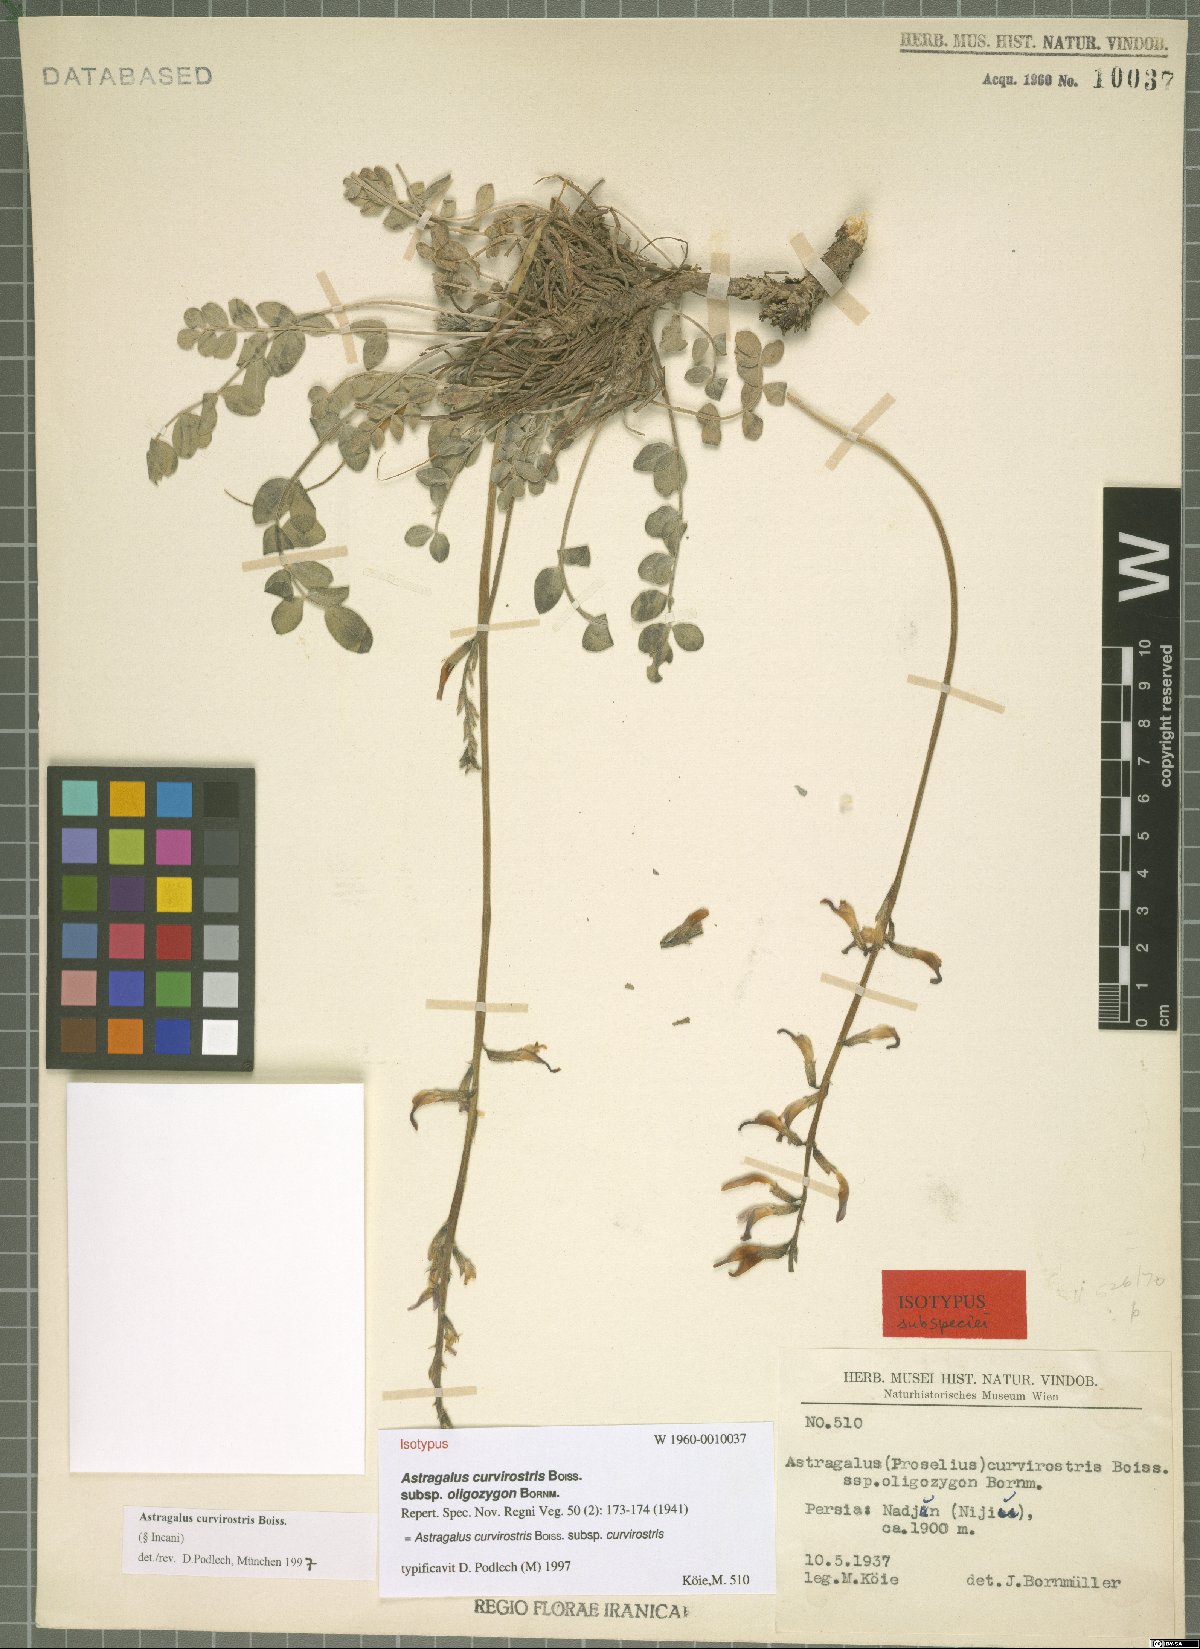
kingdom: Plantae
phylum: Tracheophyta
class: Magnoliopsida
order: Fabales
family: Fabaceae
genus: Astragalus
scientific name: Astragalus curvirostris
